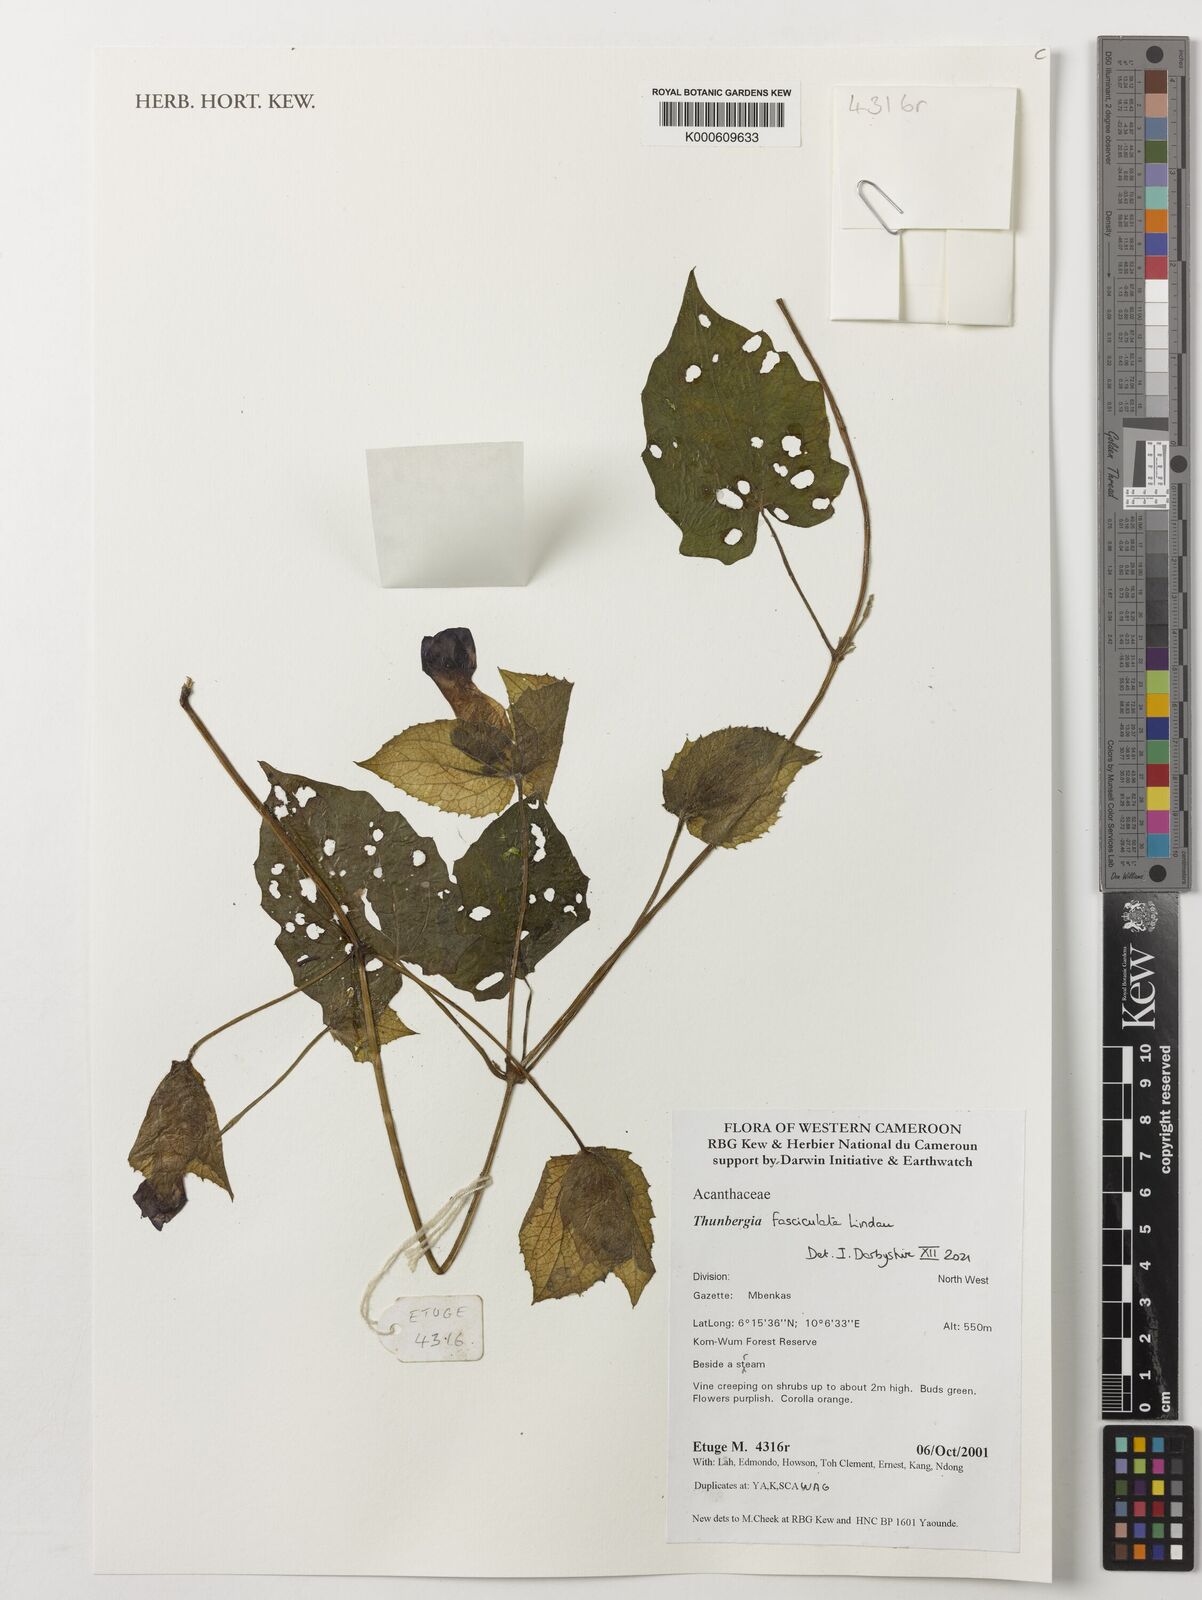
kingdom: Plantae
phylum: Tracheophyta
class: Magnoliopsida
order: Lamiales
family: Acanthaceae
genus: Thunbergia
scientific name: Thunbergia fasciculata
